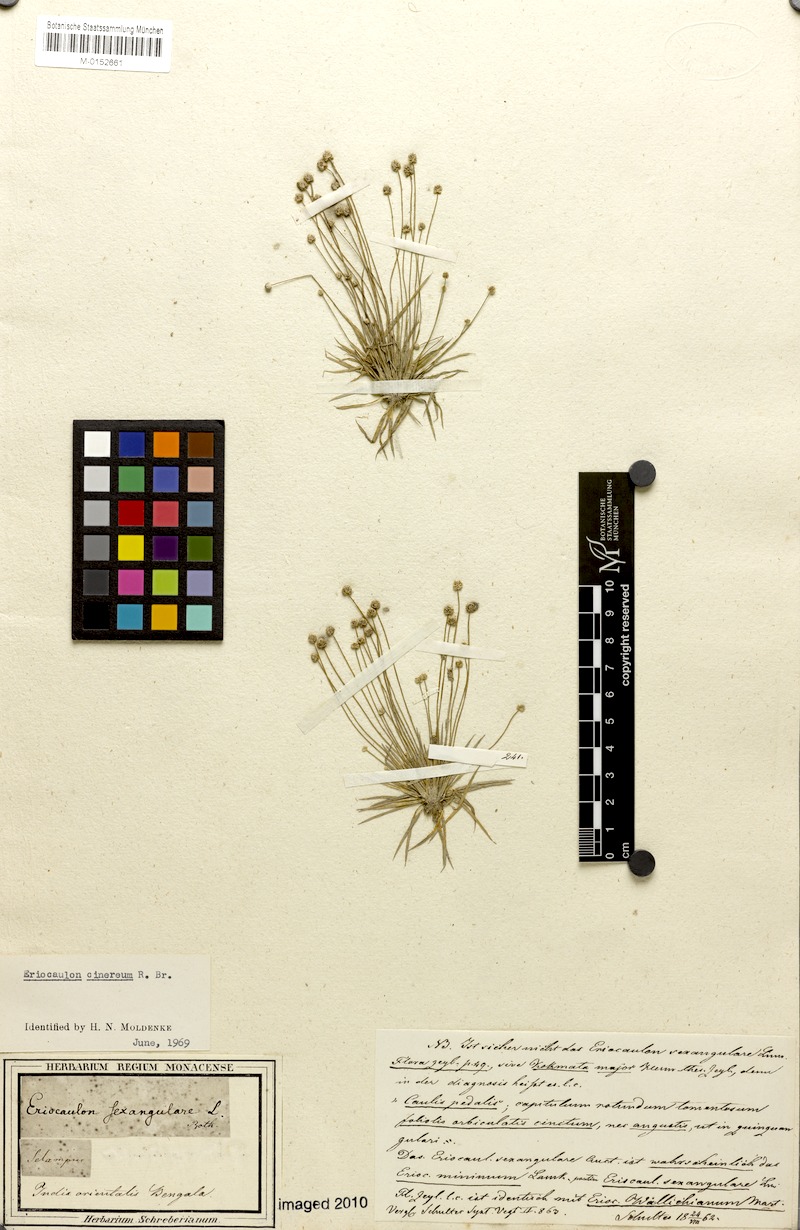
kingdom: Plantae
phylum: Tracheophyta
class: Liliopsida
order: Poales
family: Eriocaulaceae
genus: Eriocaulon
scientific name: Eriocaulon cinereum
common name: Ashy pipewort
